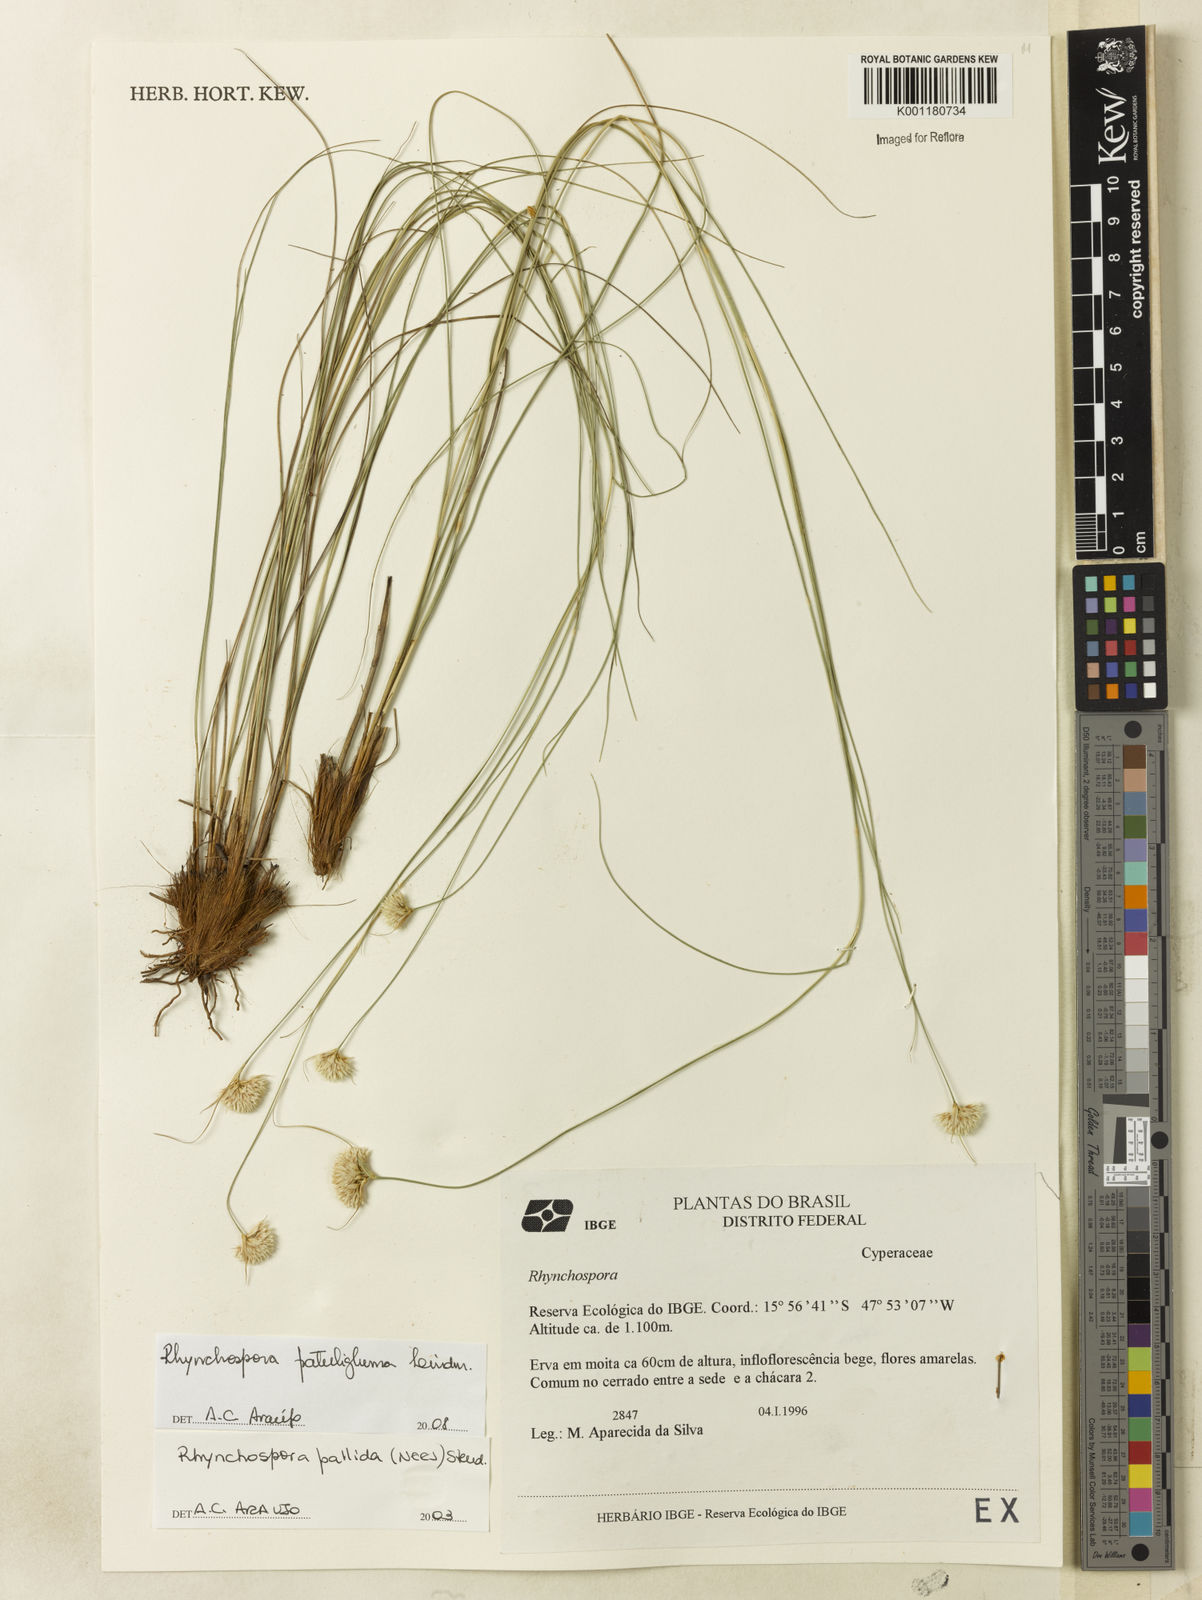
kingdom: Plantae
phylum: Tracheophyta
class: Liliopsida
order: Poales
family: Cyperaceae
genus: Rhynchospora
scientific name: Rhynchospora patuligluma
